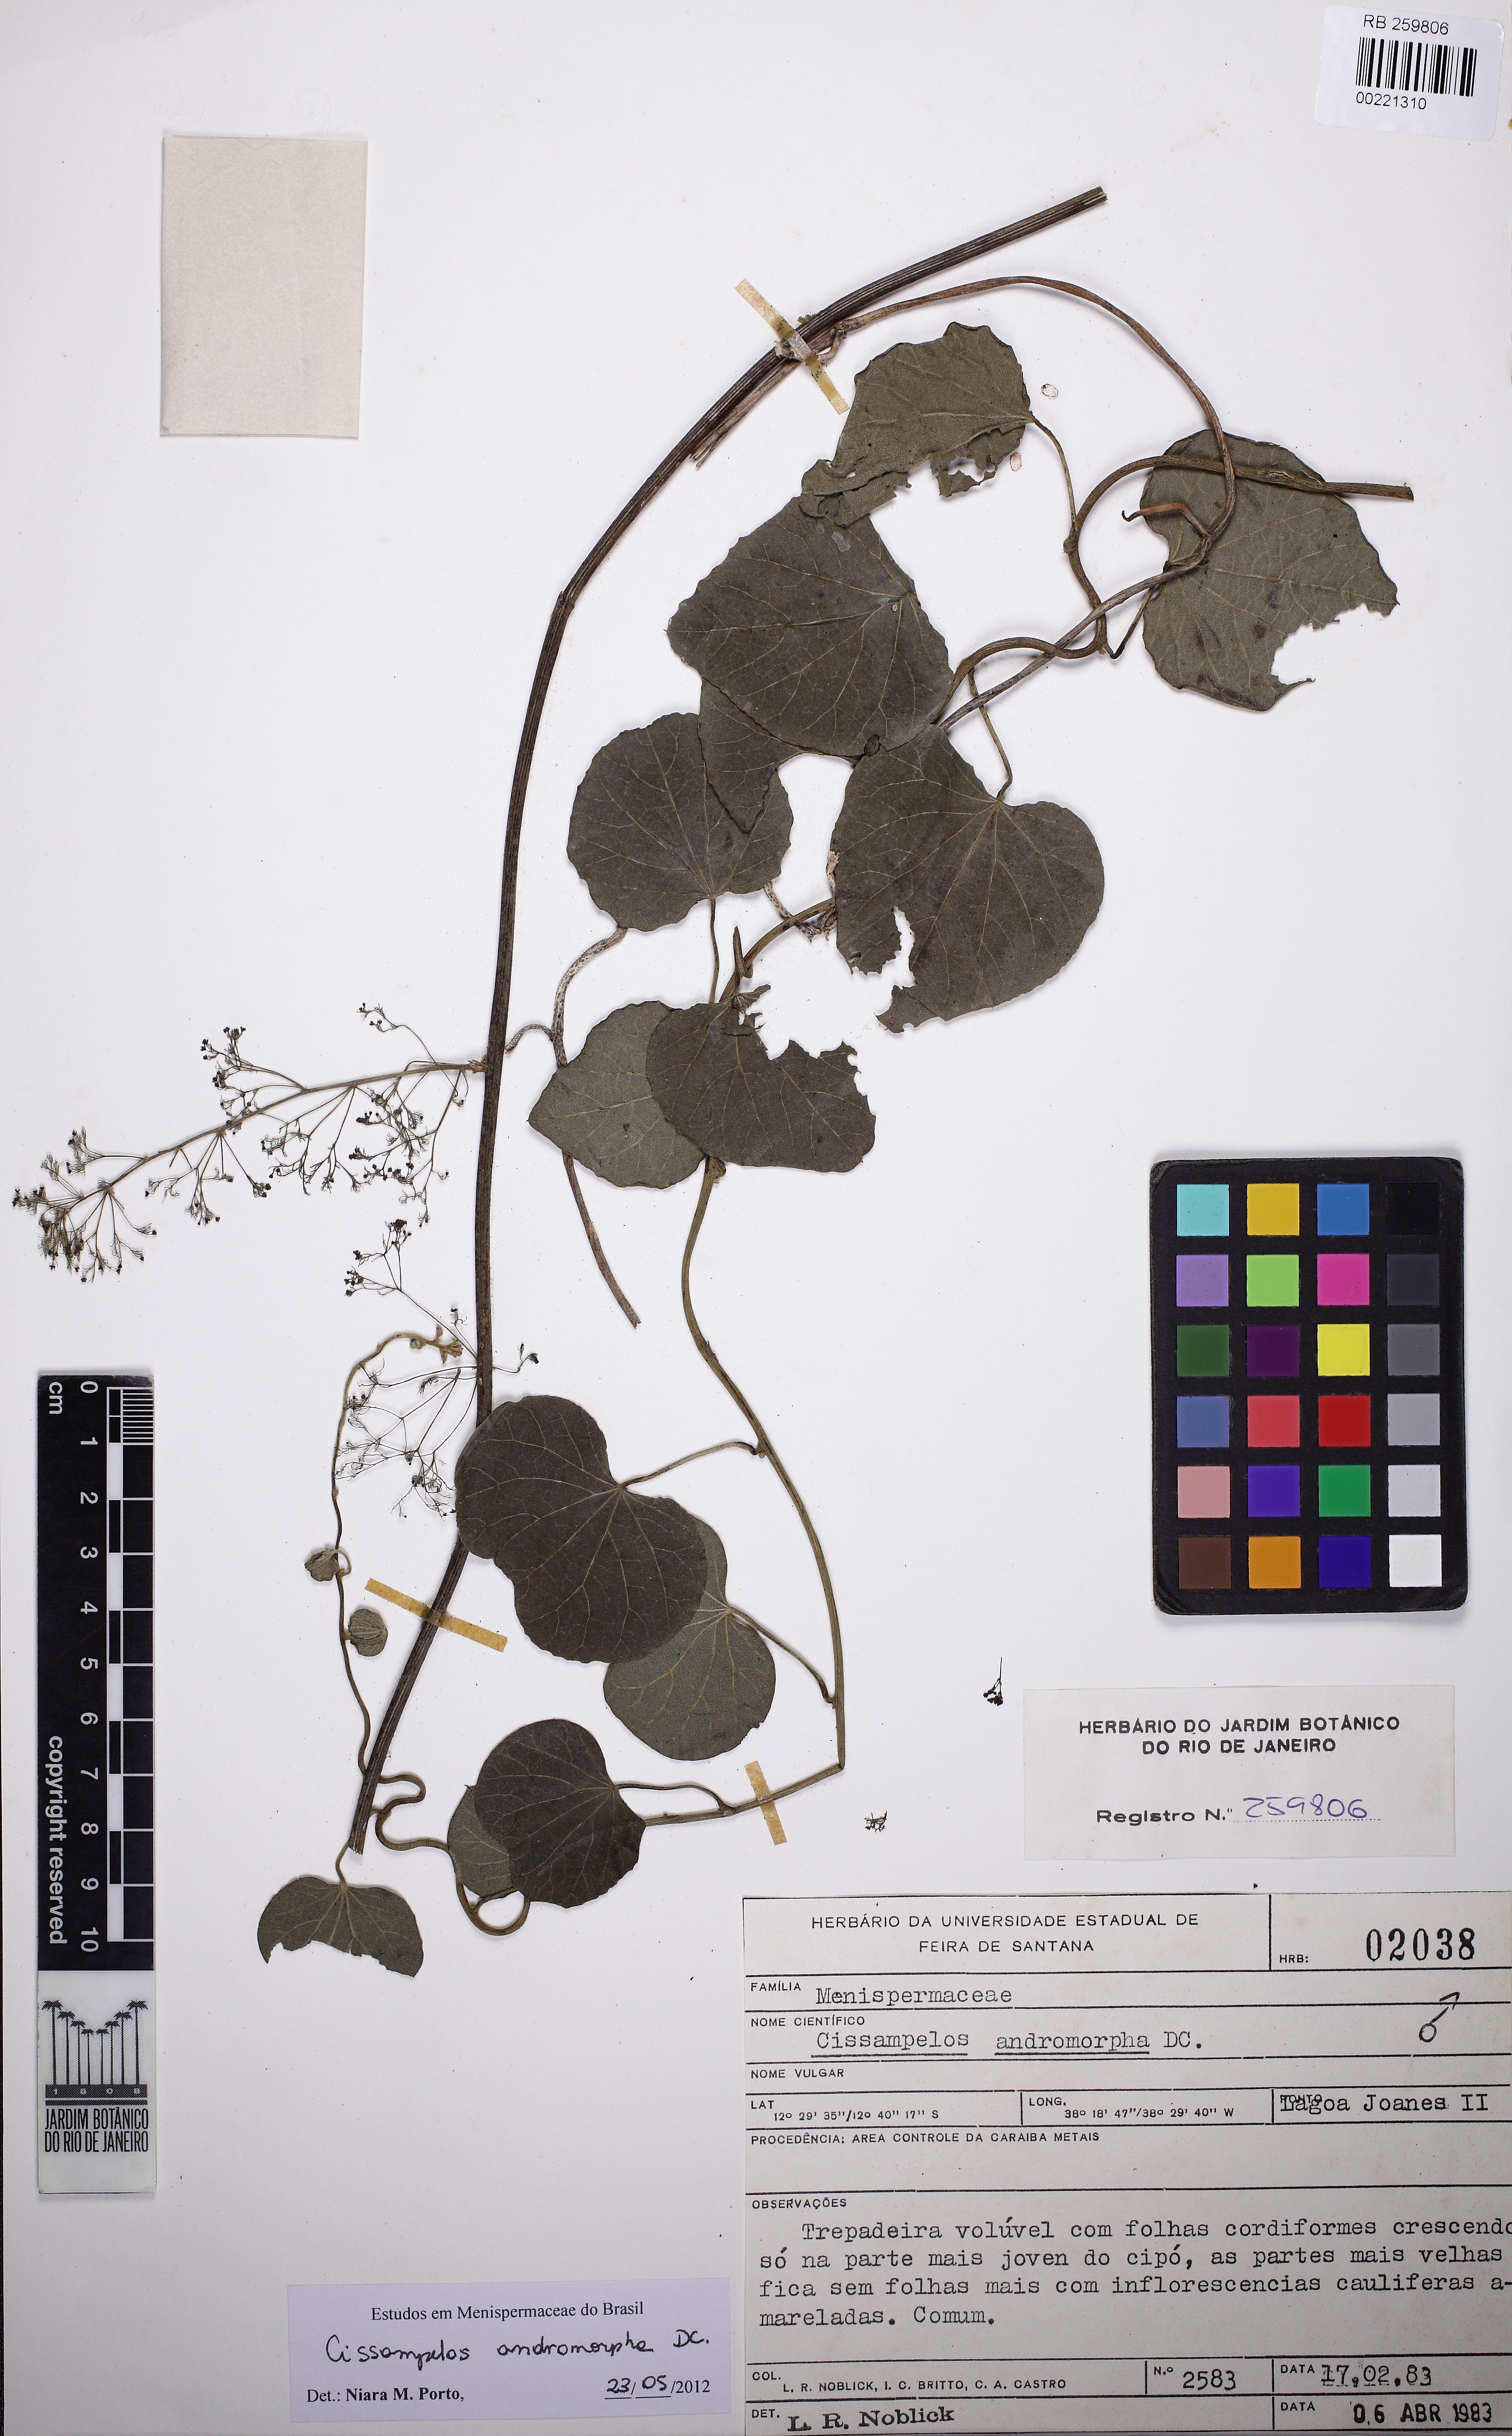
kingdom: Plantae
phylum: Tracheophyta
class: Magnoliopsida
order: Ranunculales
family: Menispermaceae
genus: Cissampelos
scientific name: Cissampelos andromorpha
